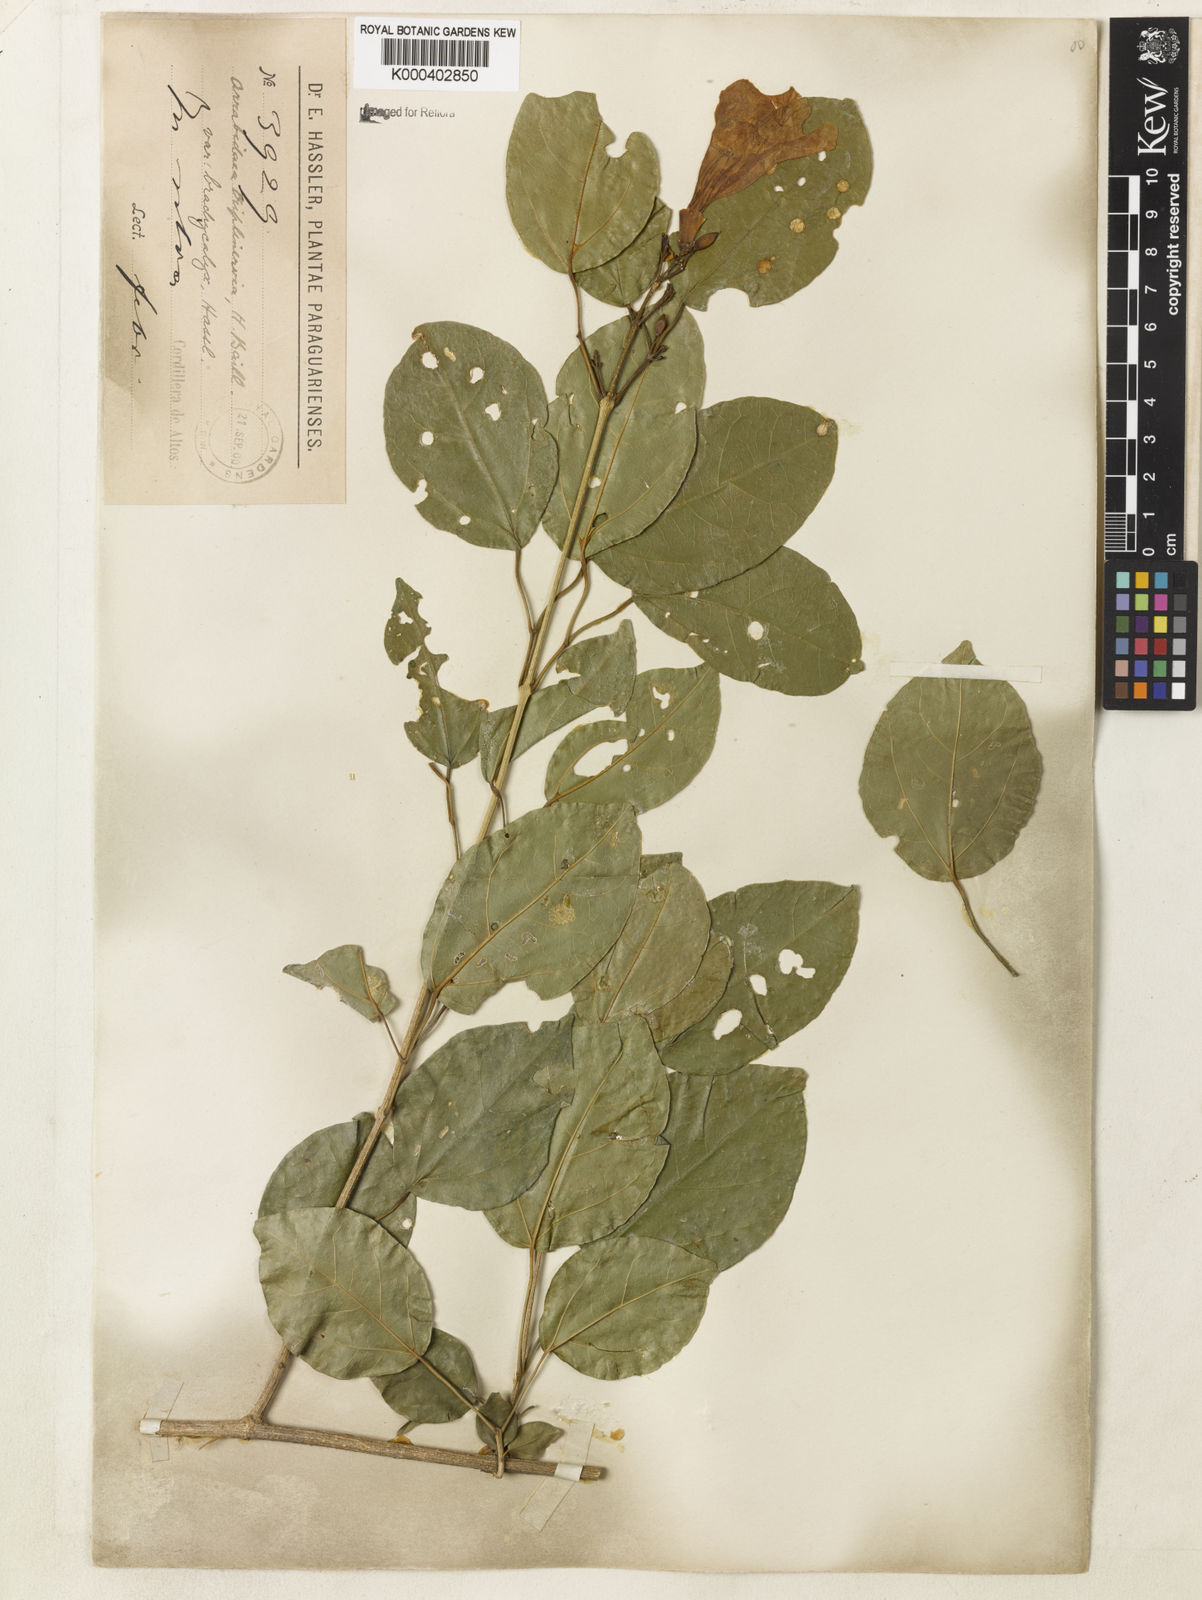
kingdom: Plantae
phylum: Tracheophyta
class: Magnoliopsida
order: Lamiales
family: Bignoniaceae
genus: Fridericia
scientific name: Fridericia triplinervia
